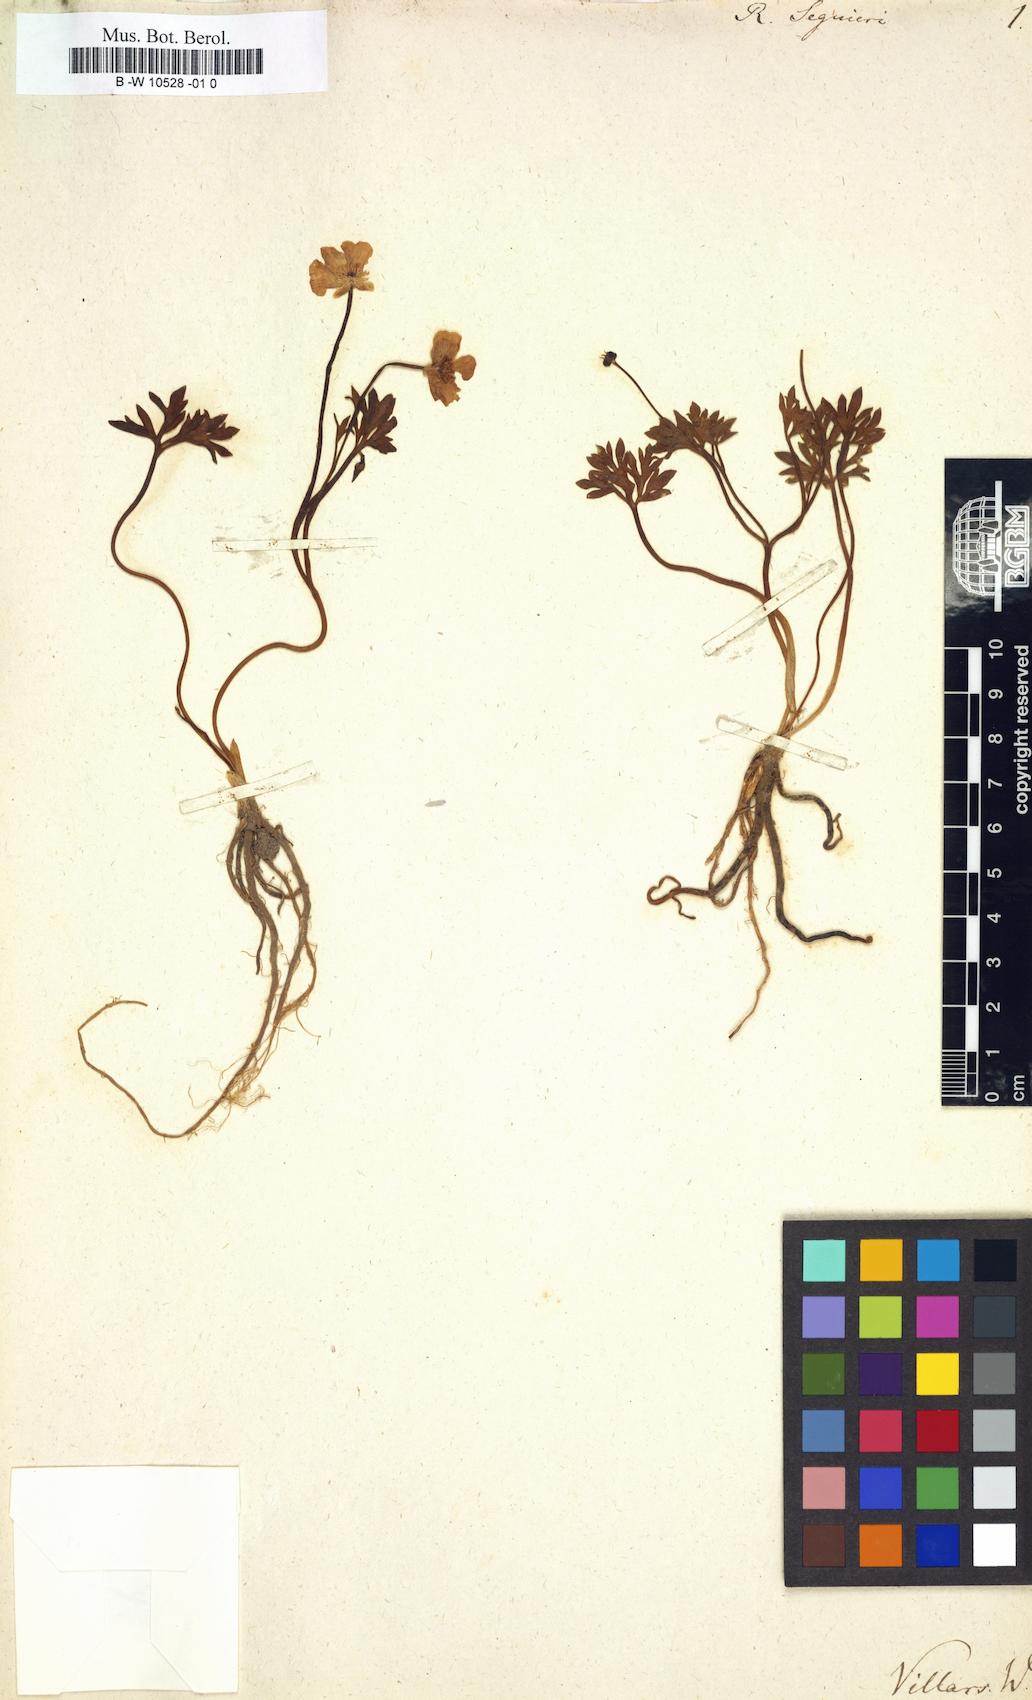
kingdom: Plantae
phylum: Tracheophyta
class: Magnoliopsida
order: Ranunculales
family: Ranunculaceae
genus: Ranunculus
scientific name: Ranunculus seguieri
